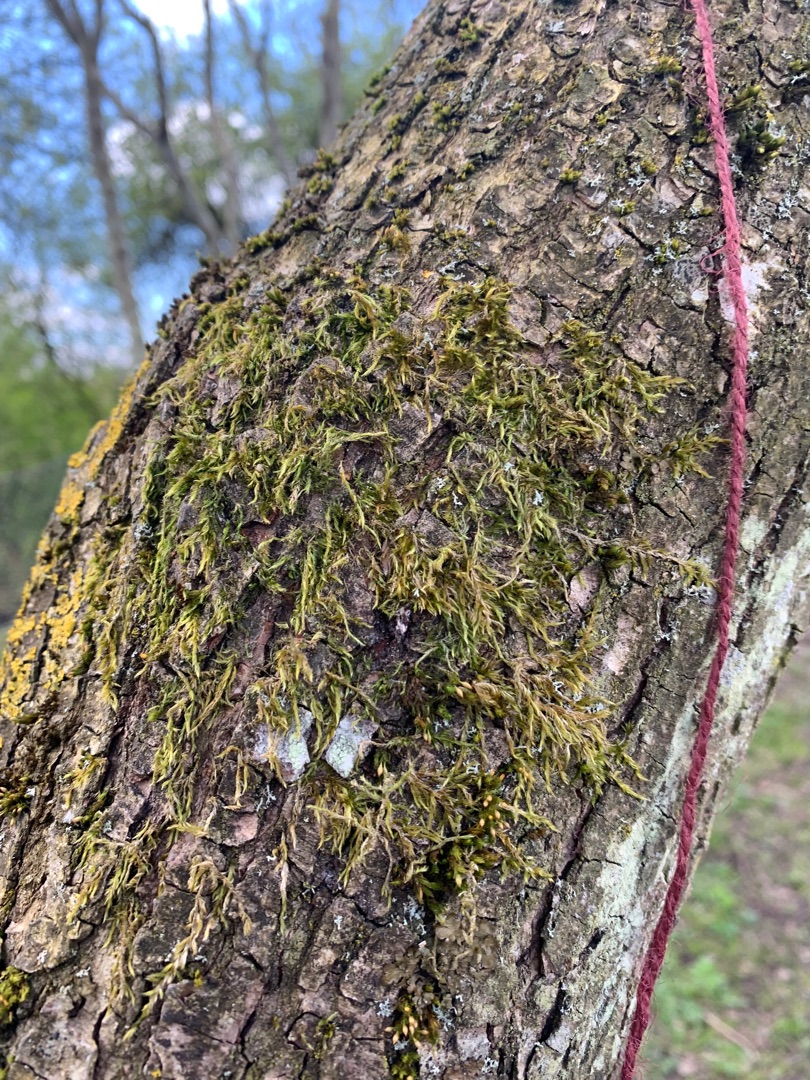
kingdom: Plantae
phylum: Bryophyta
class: Bryopsida
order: Hypnales
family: Hypnaceae
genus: Hypnum
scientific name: Hypnum
